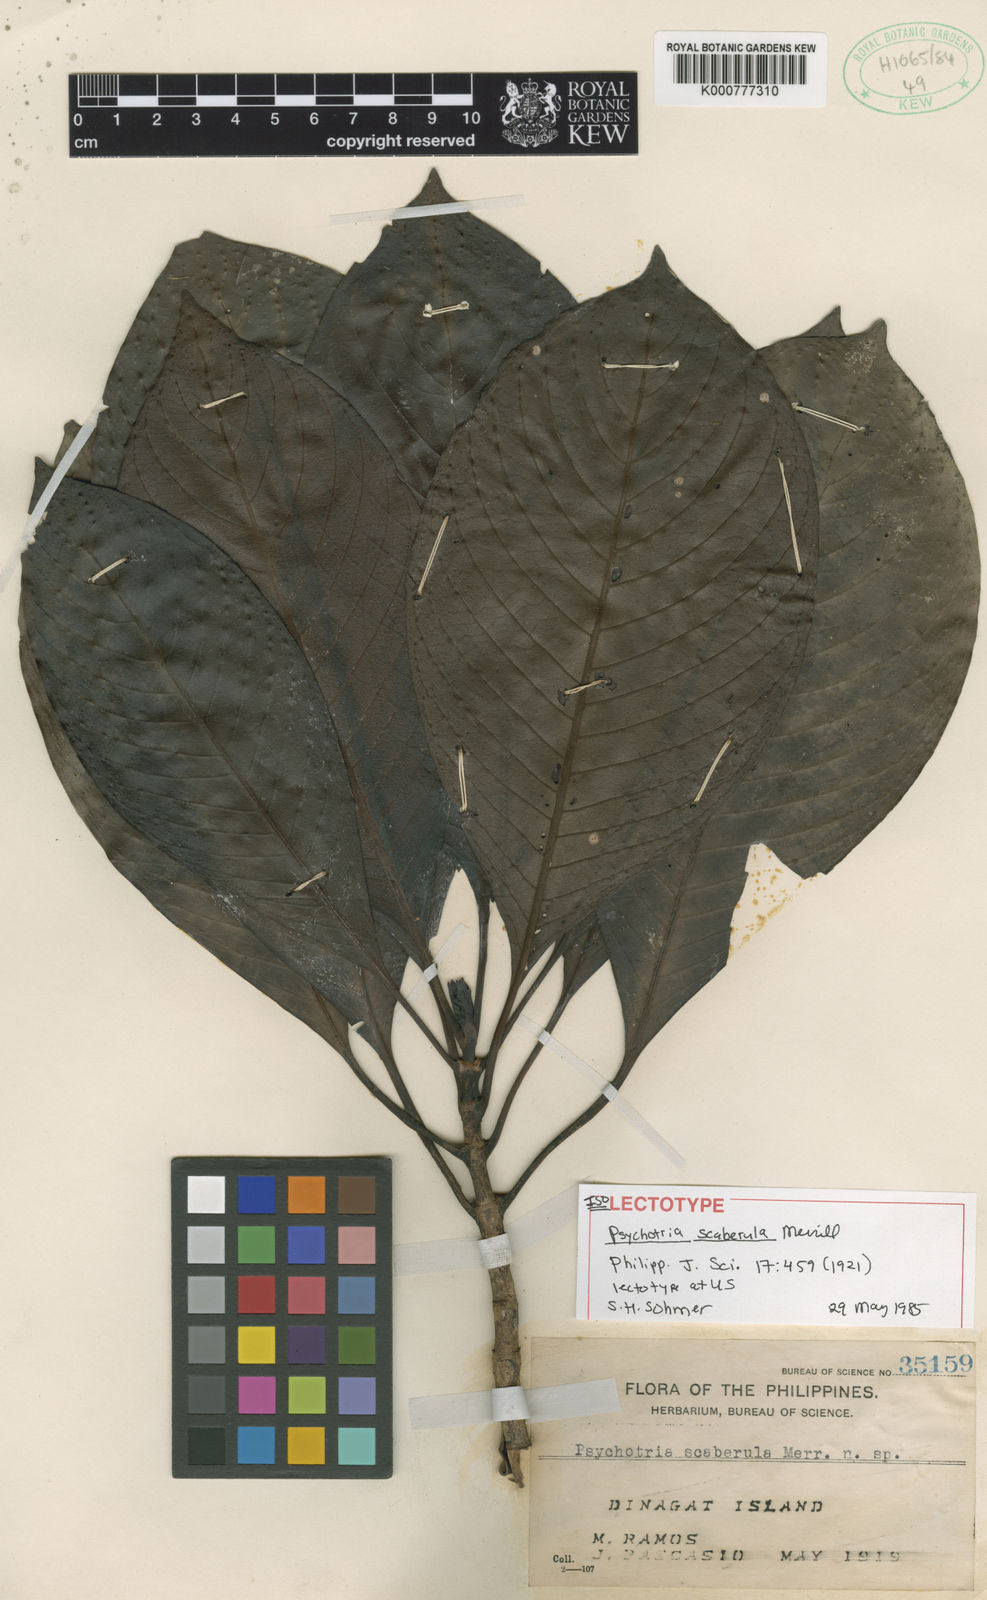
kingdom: Plantae
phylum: Tracheophyta
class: Magnoliopsida
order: Gentianales
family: Rubiaceae
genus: Psychotria
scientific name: Psychotria scaberula
